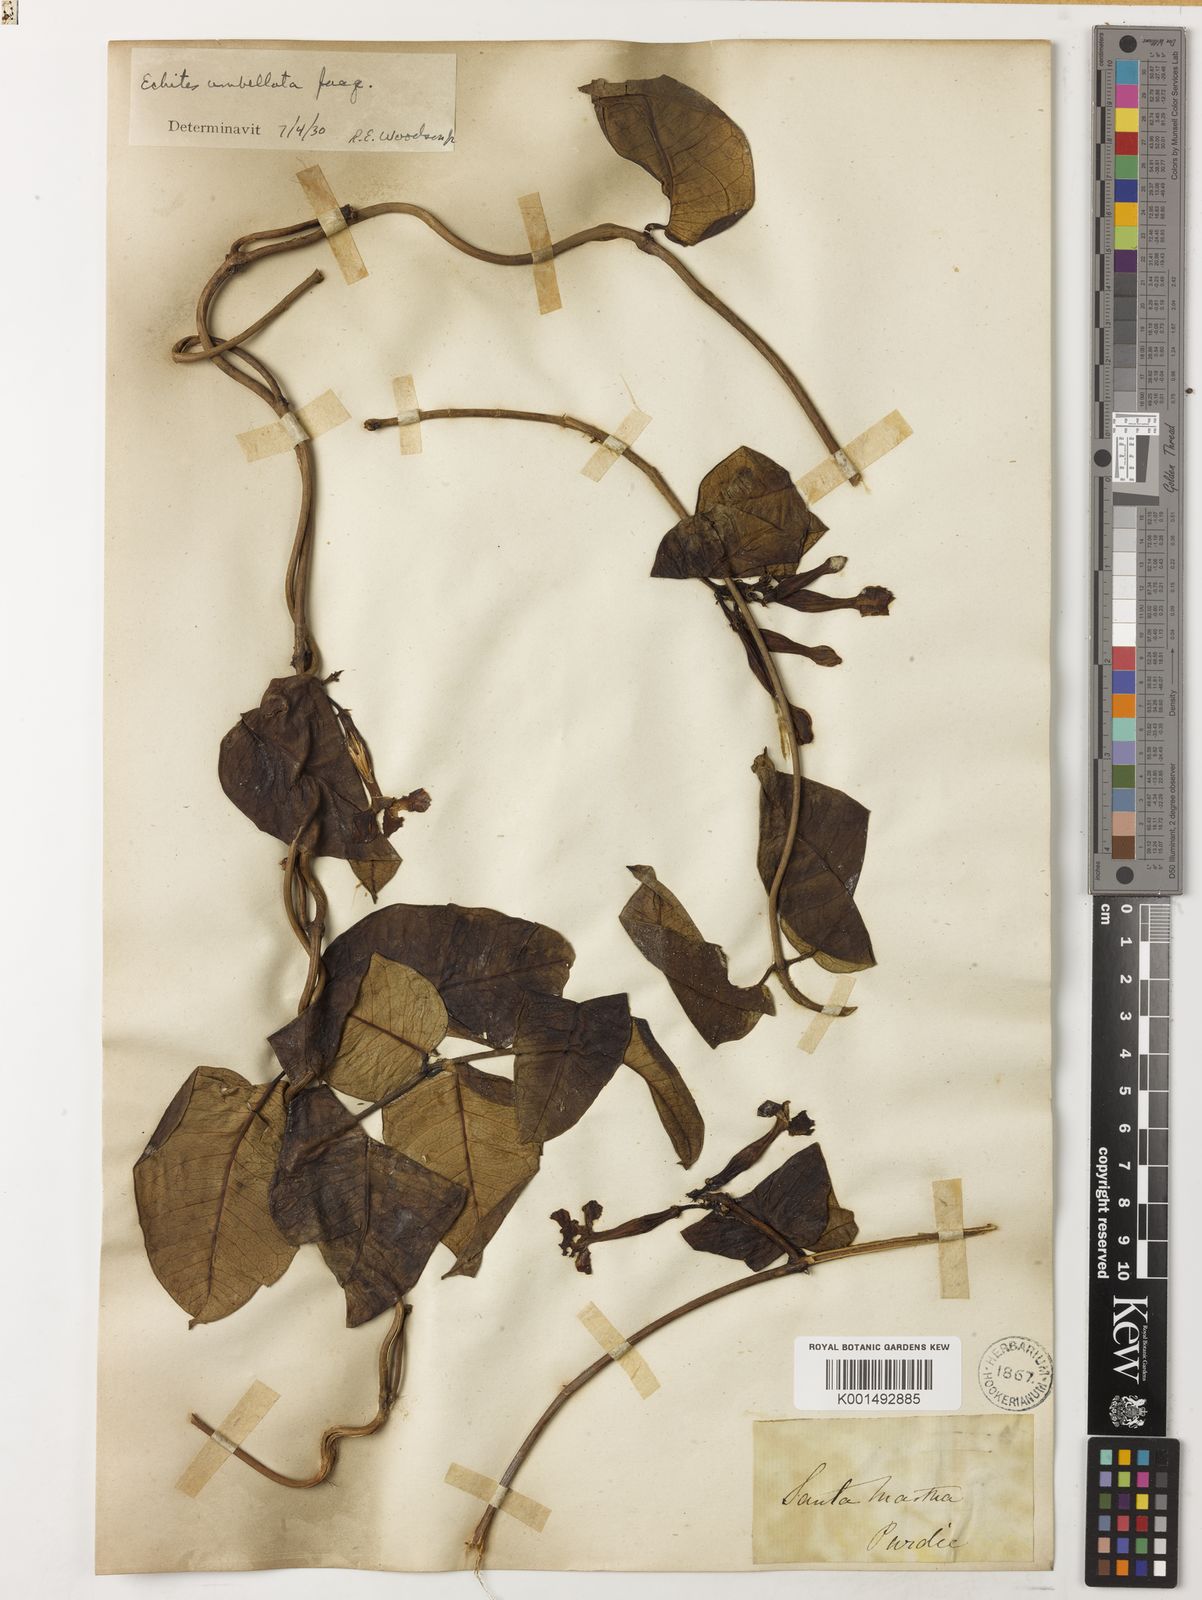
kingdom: Plantae
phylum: Tracheophyta
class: Magnoliopsida
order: Gentianales
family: Apocynaceae
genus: Echites
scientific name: Echites umbellatus
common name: Devil's potato
